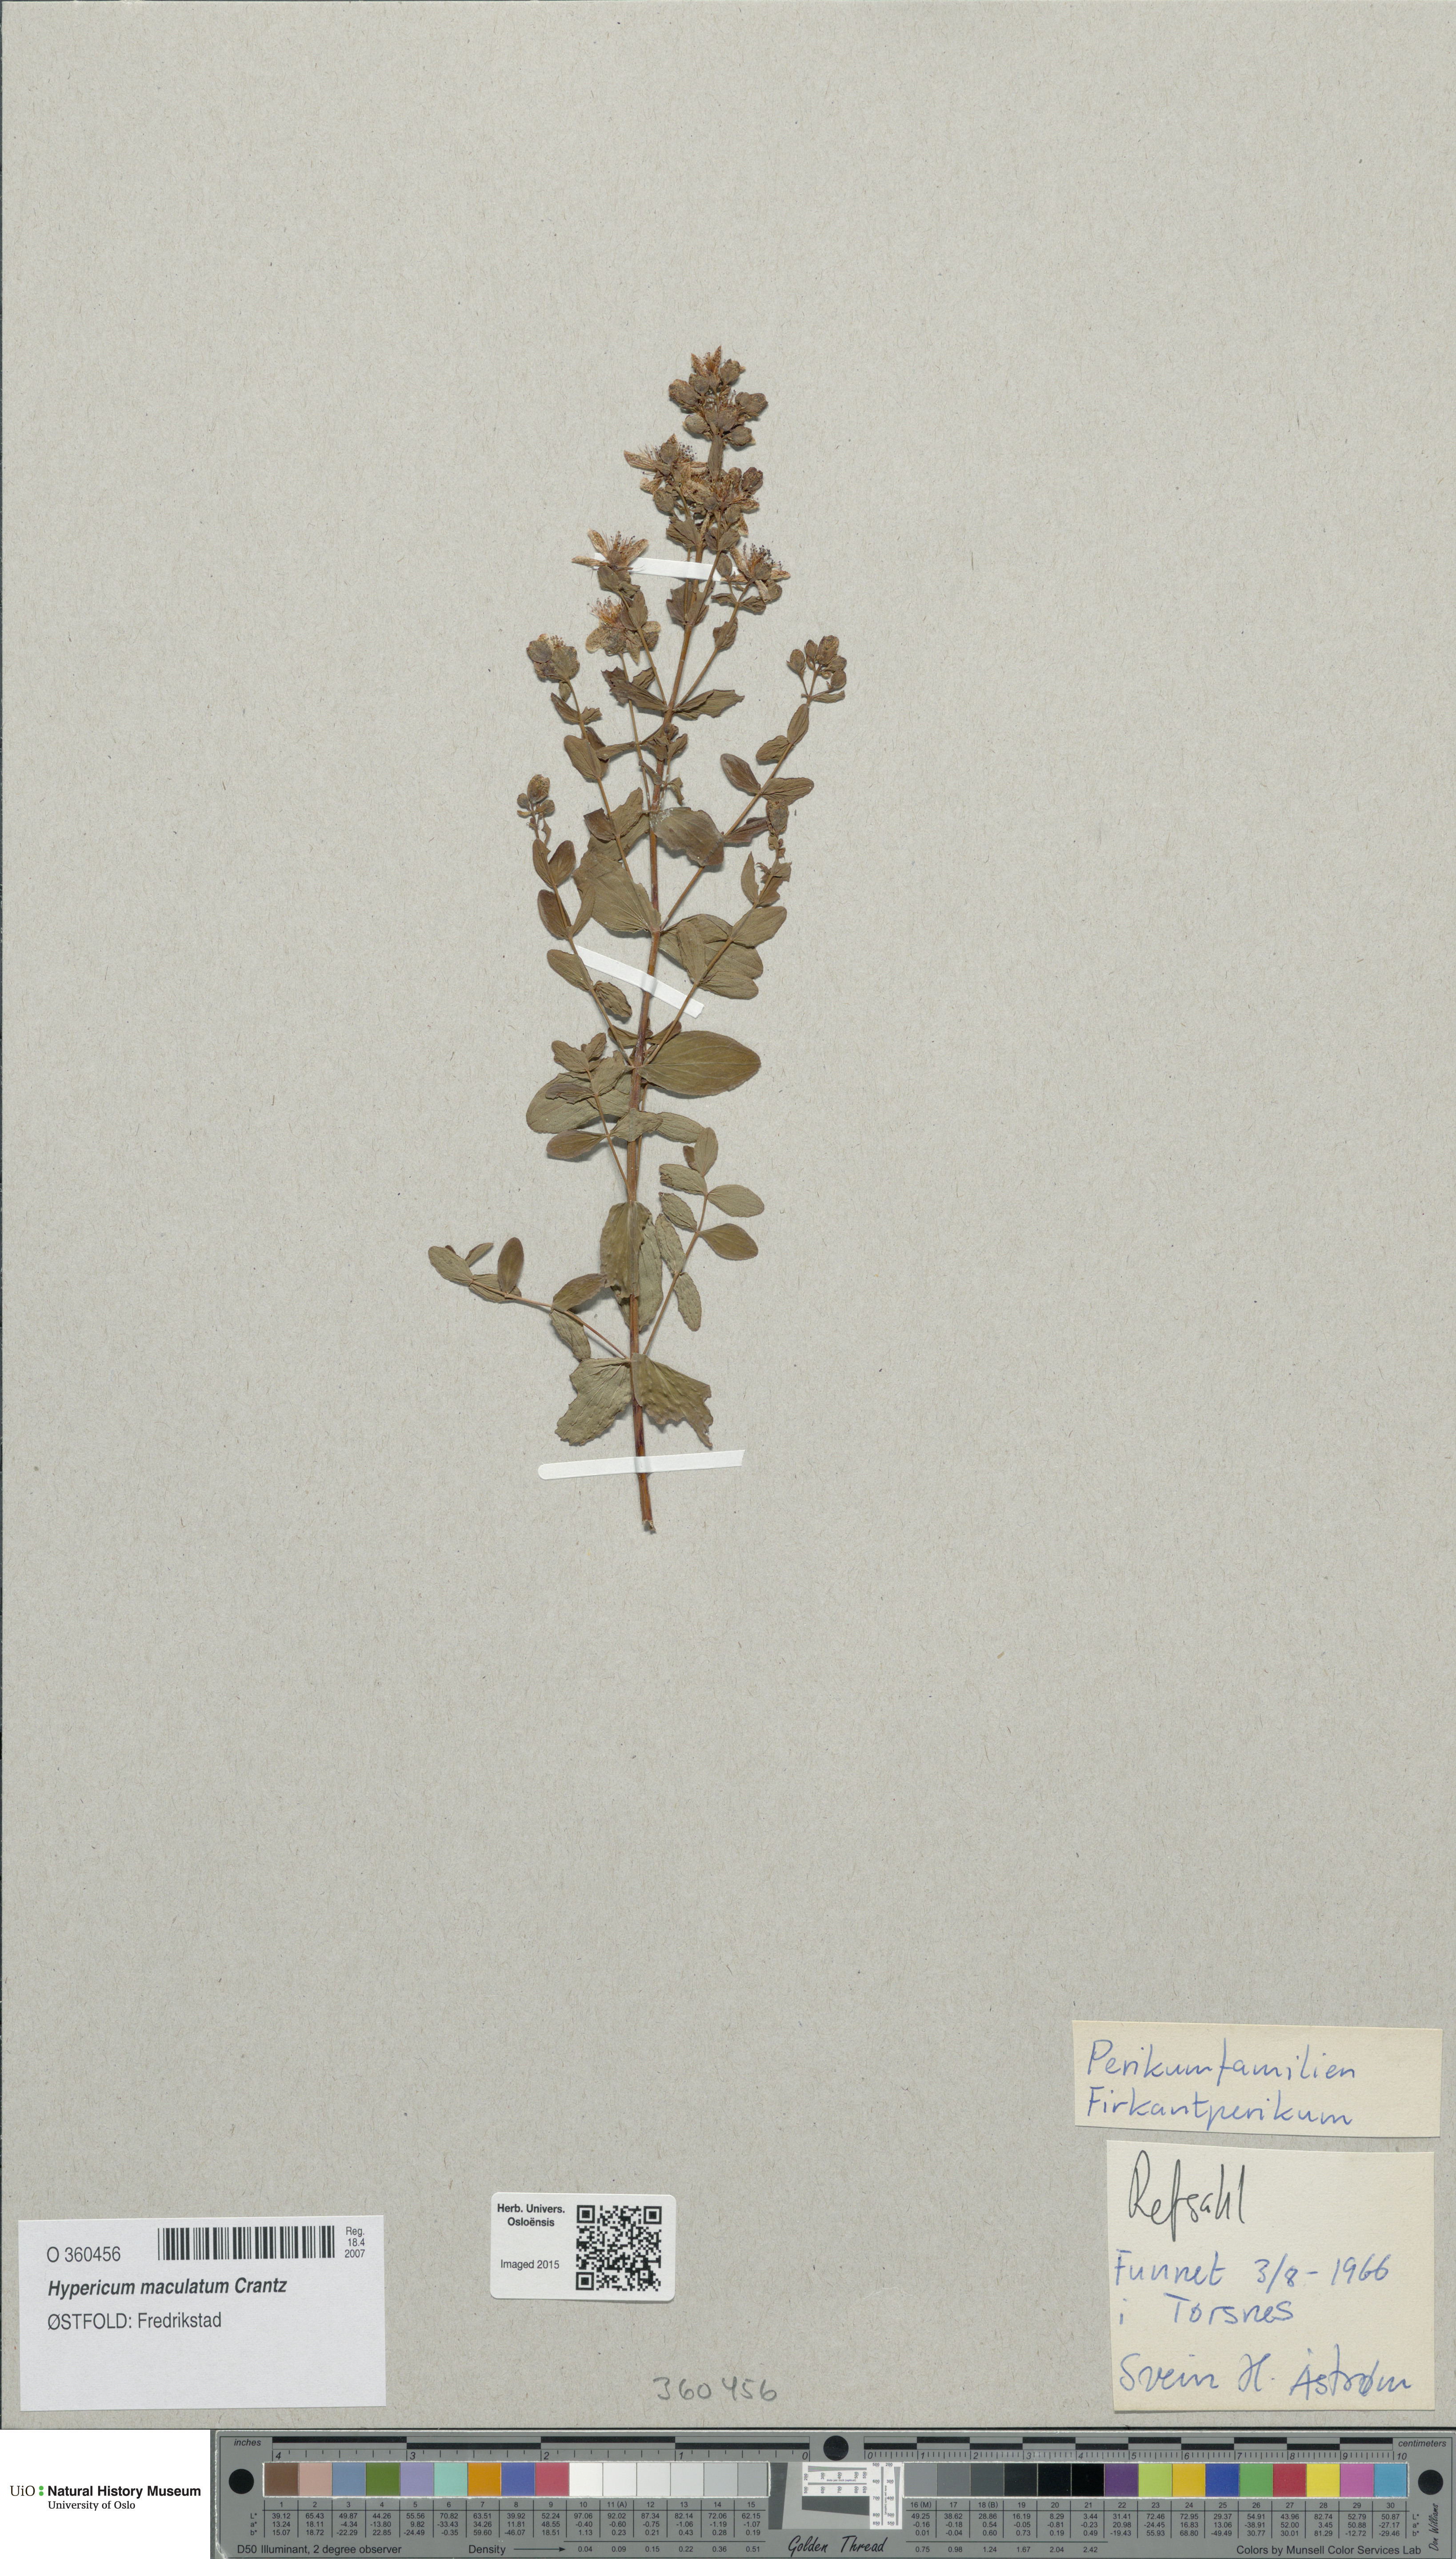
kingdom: Plantae
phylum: Tracheophyta
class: Magnoliopsida
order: Malpighiales
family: Hypericaceae
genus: Hypericum
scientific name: Hypericum maculatum
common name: Imperforate st. john's-wort
